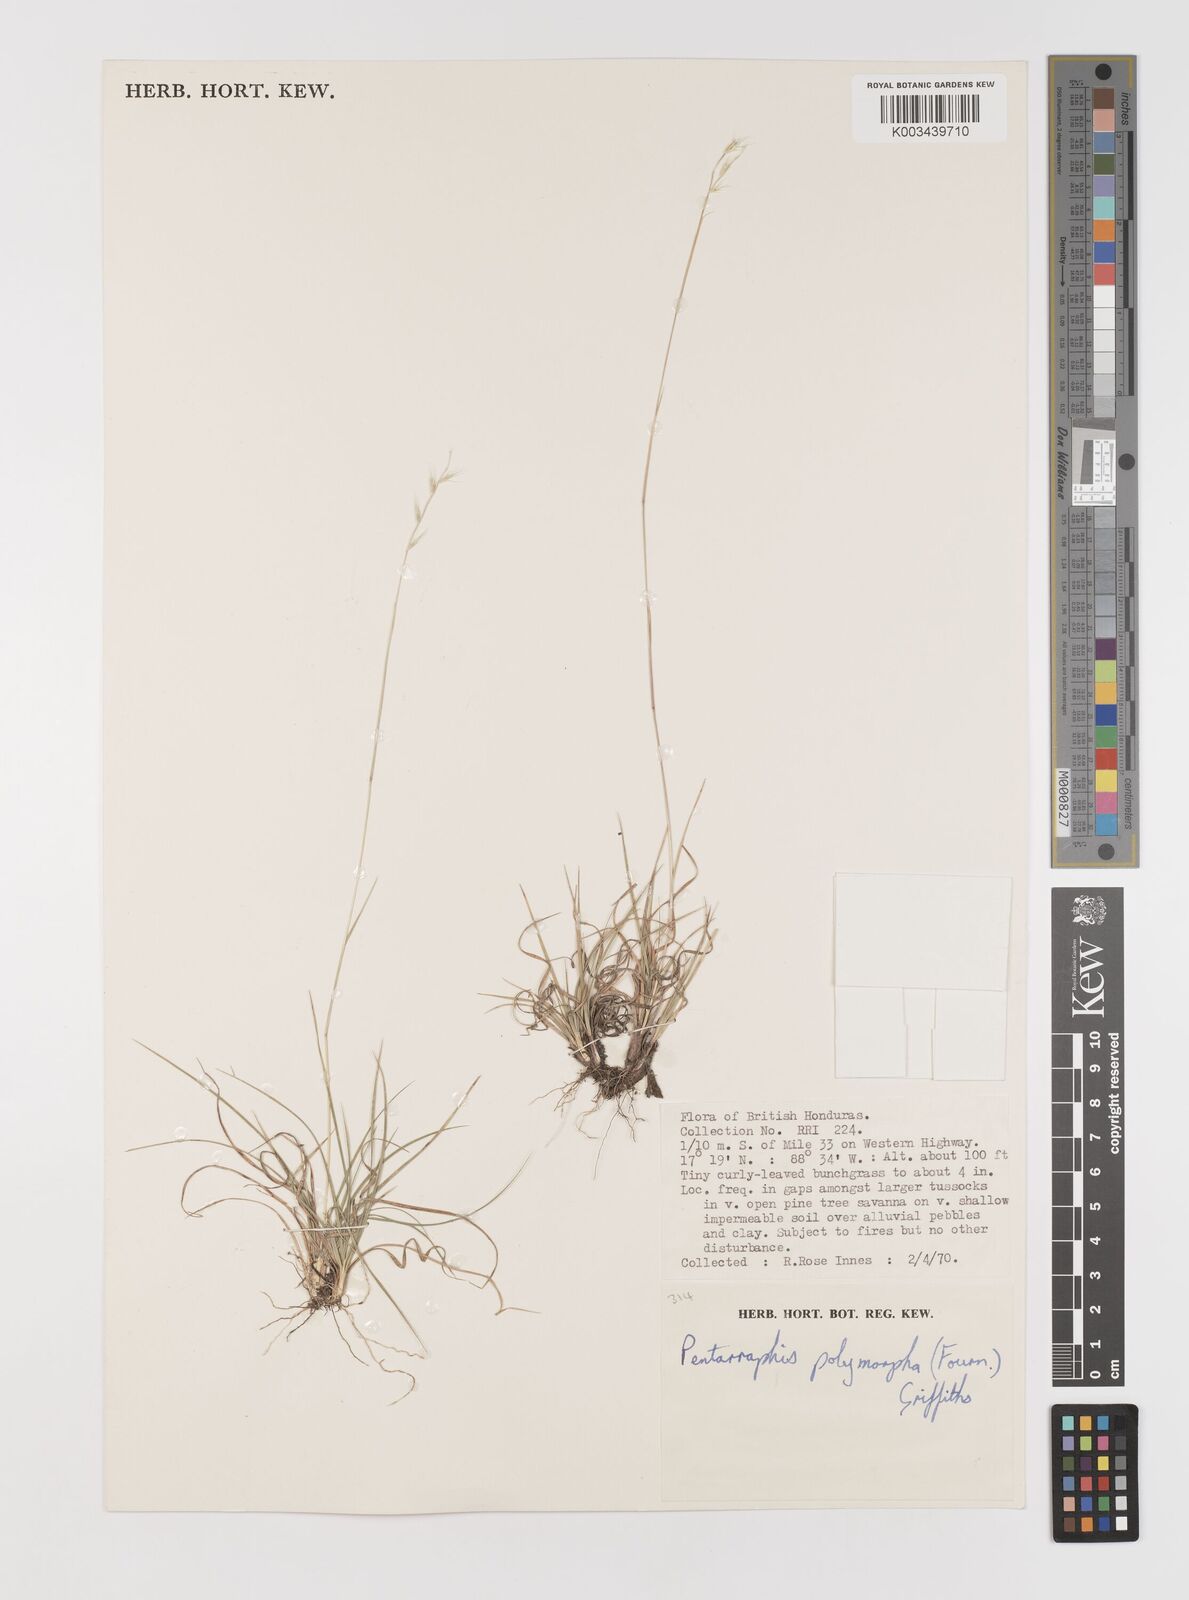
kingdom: Plantae
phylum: Tracheophyta
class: Liliopsida
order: Poales
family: Poaceae
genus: Bouteloua
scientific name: Bouteloua polymorpha
